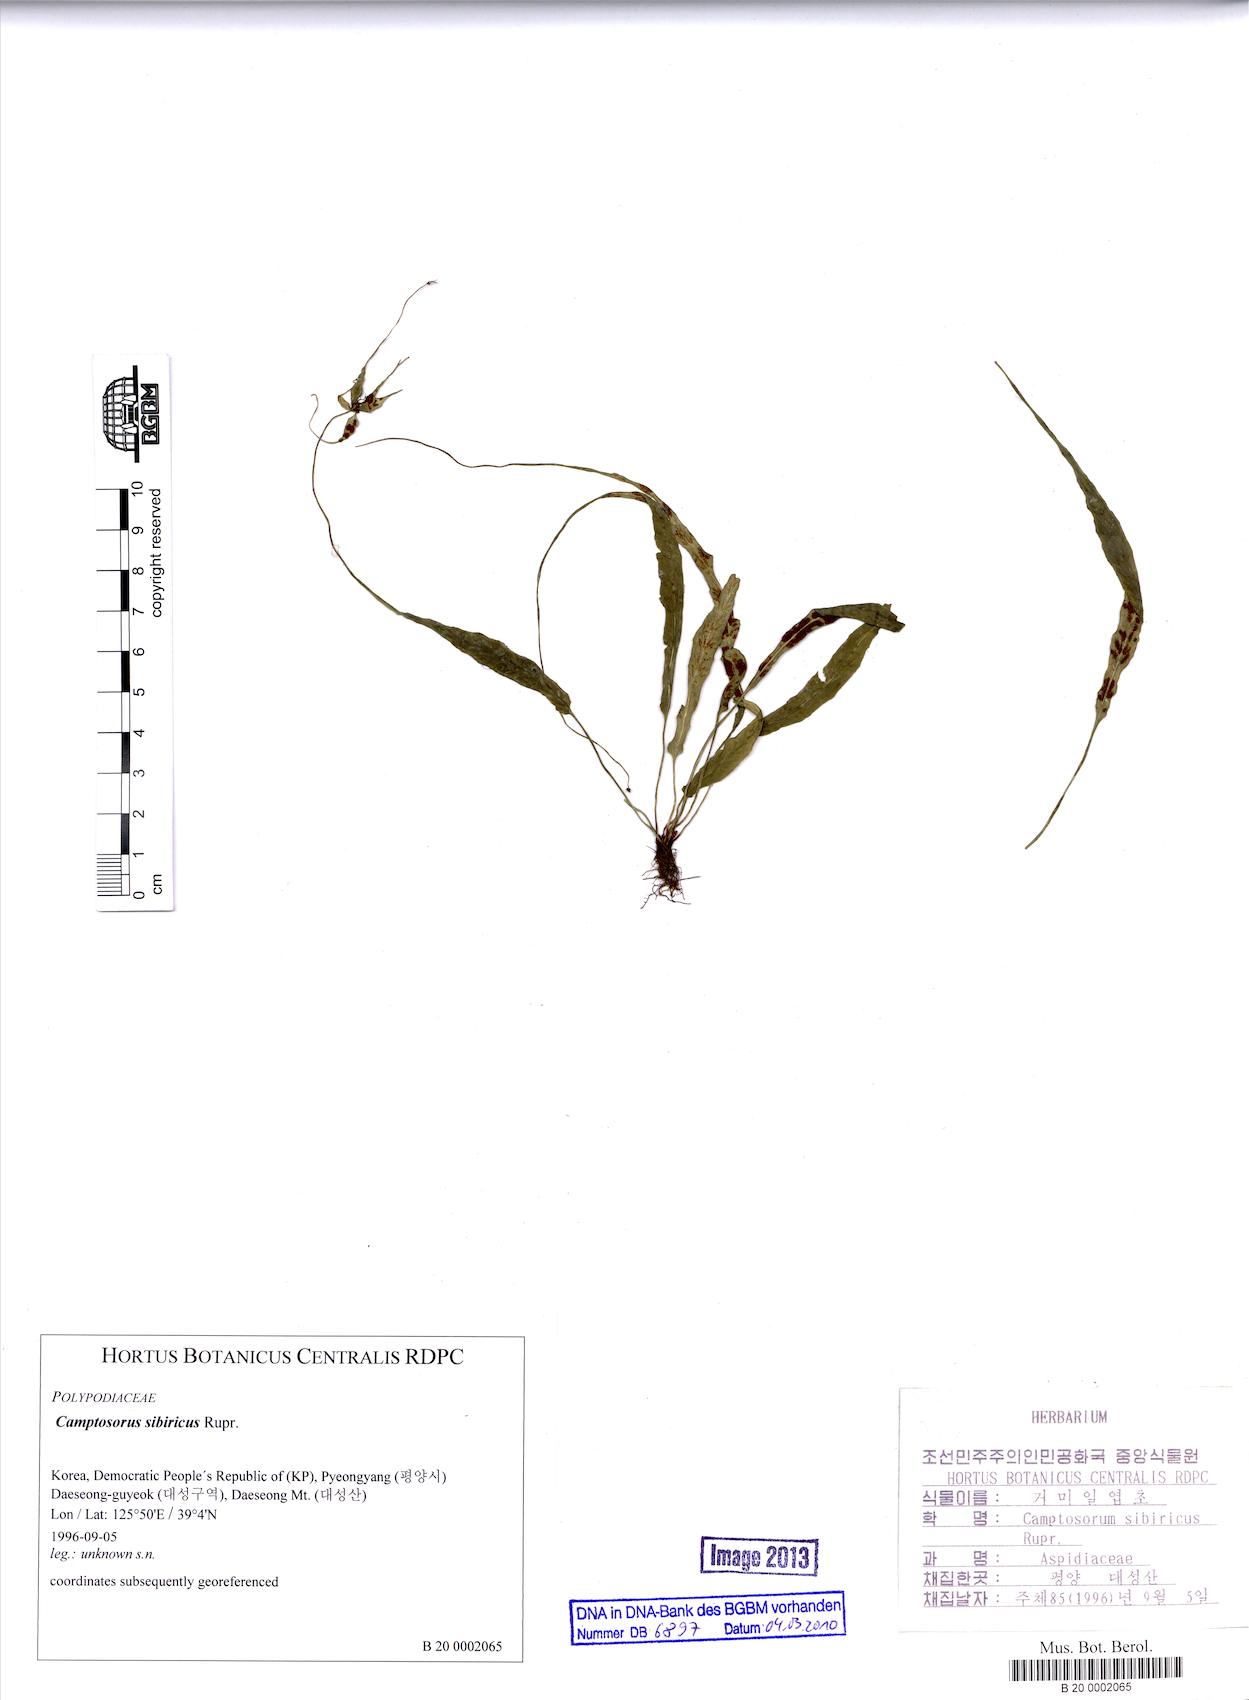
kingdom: Plantae
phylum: Tracheophyta
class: Polypodiopsida
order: Polypodiales
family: Aspleniaceae
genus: Asplenium
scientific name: Asplenium ruprechtii
